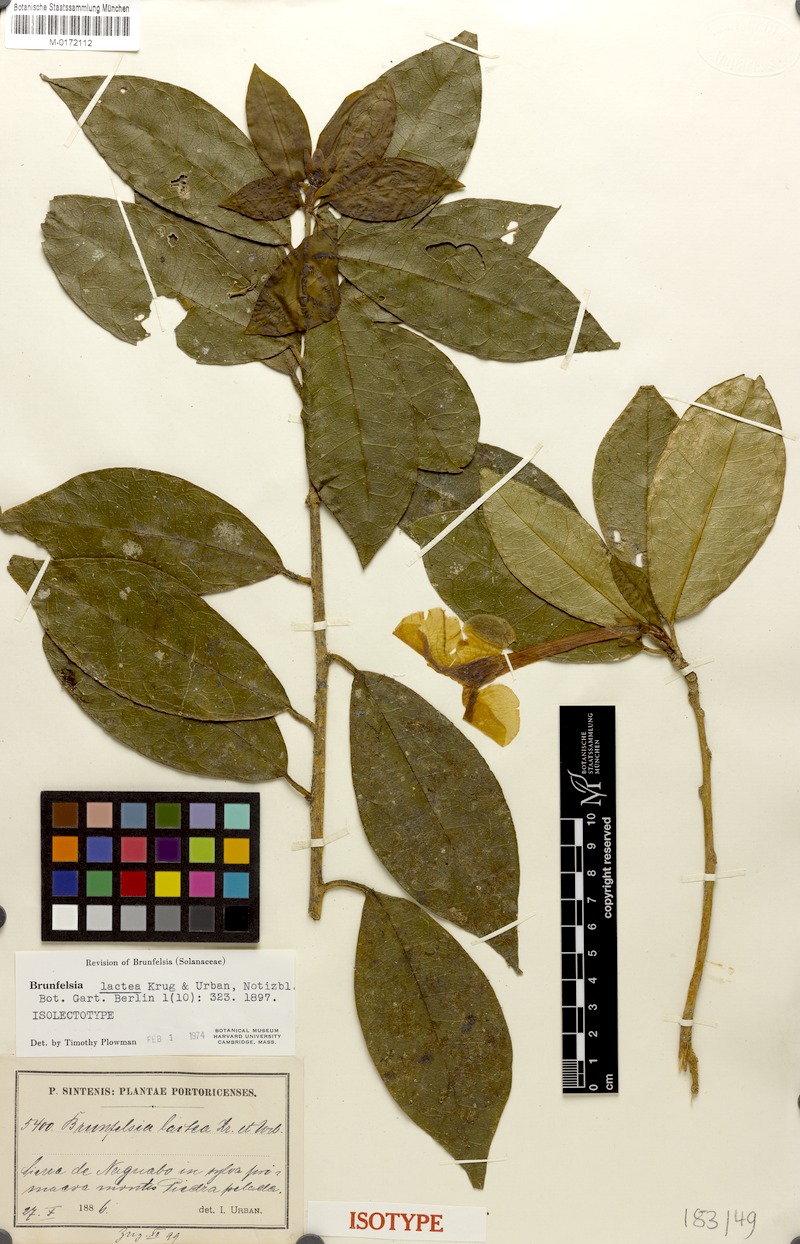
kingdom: Plantae
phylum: Tracheophyta
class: Magnoliopsida
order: Solanales
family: Solanaceae
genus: Brunfelsia
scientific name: Brunfelsia lactea
